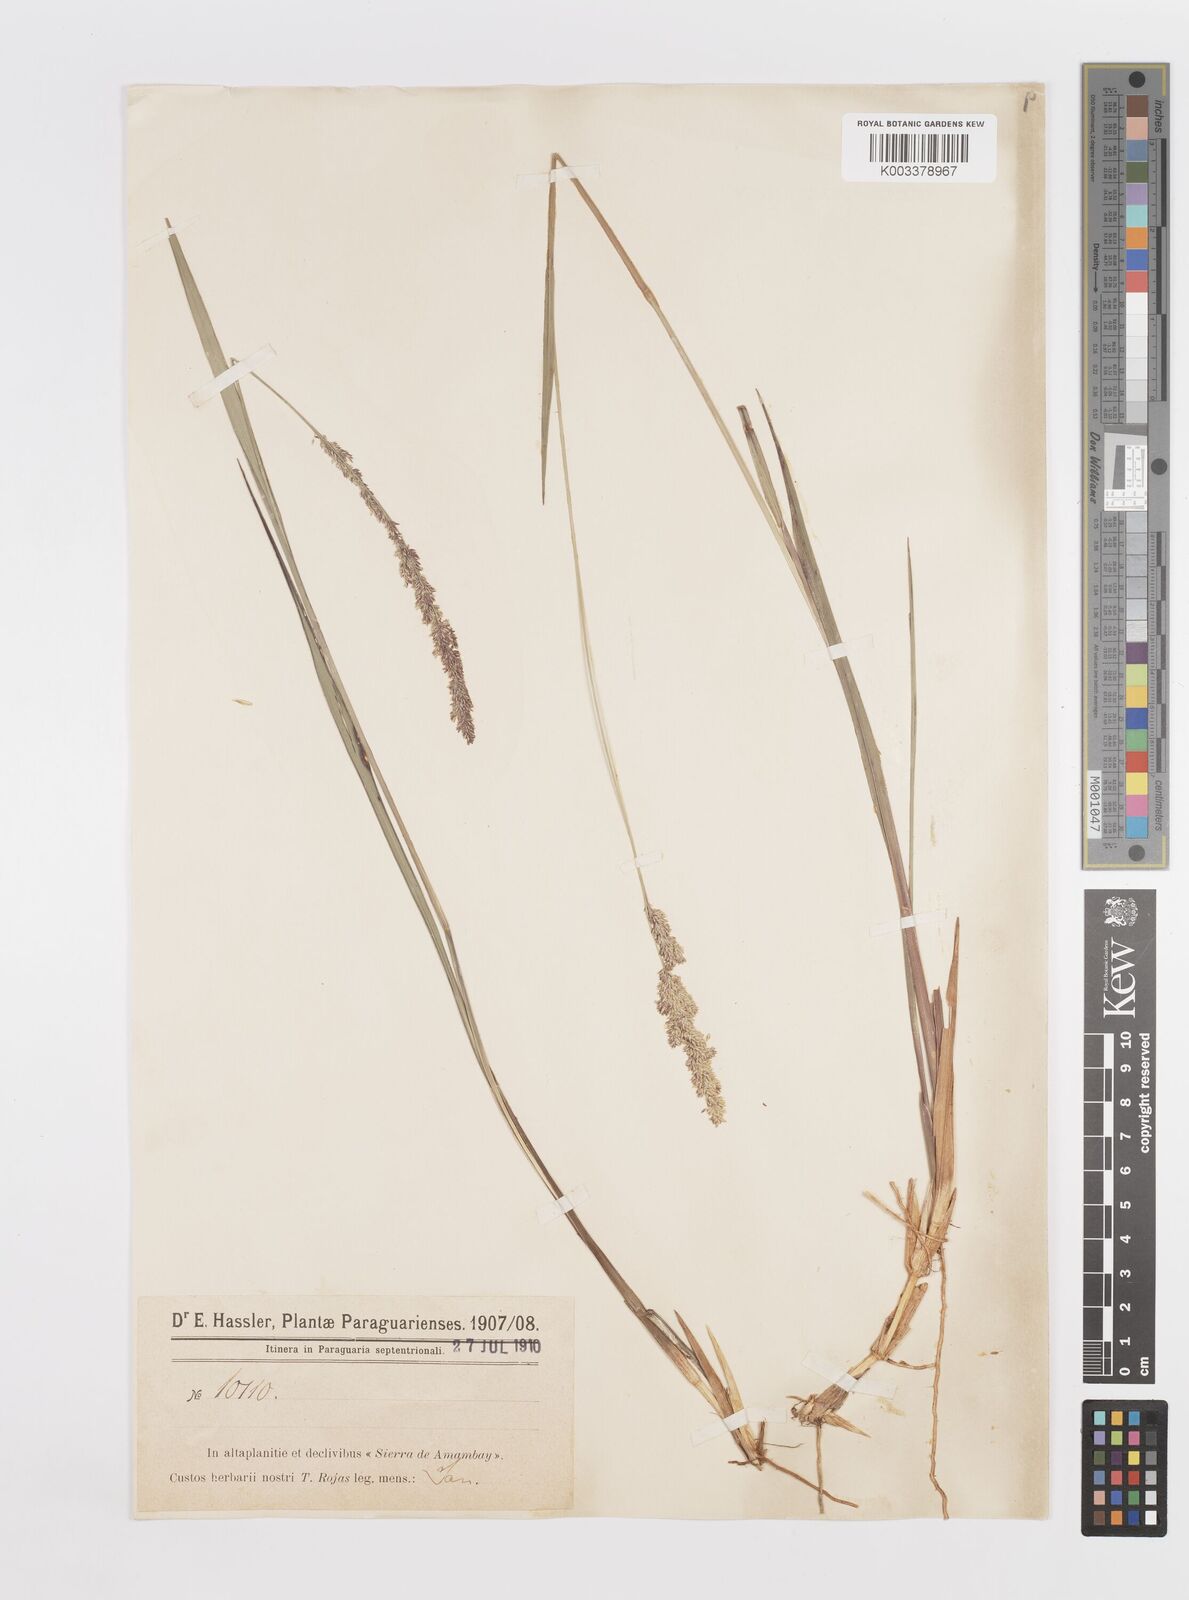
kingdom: Plantae
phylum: Tracheophyta
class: Liliopsida
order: Poales
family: Poaceae
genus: Steinchisma
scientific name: Steinchisma decipiens
